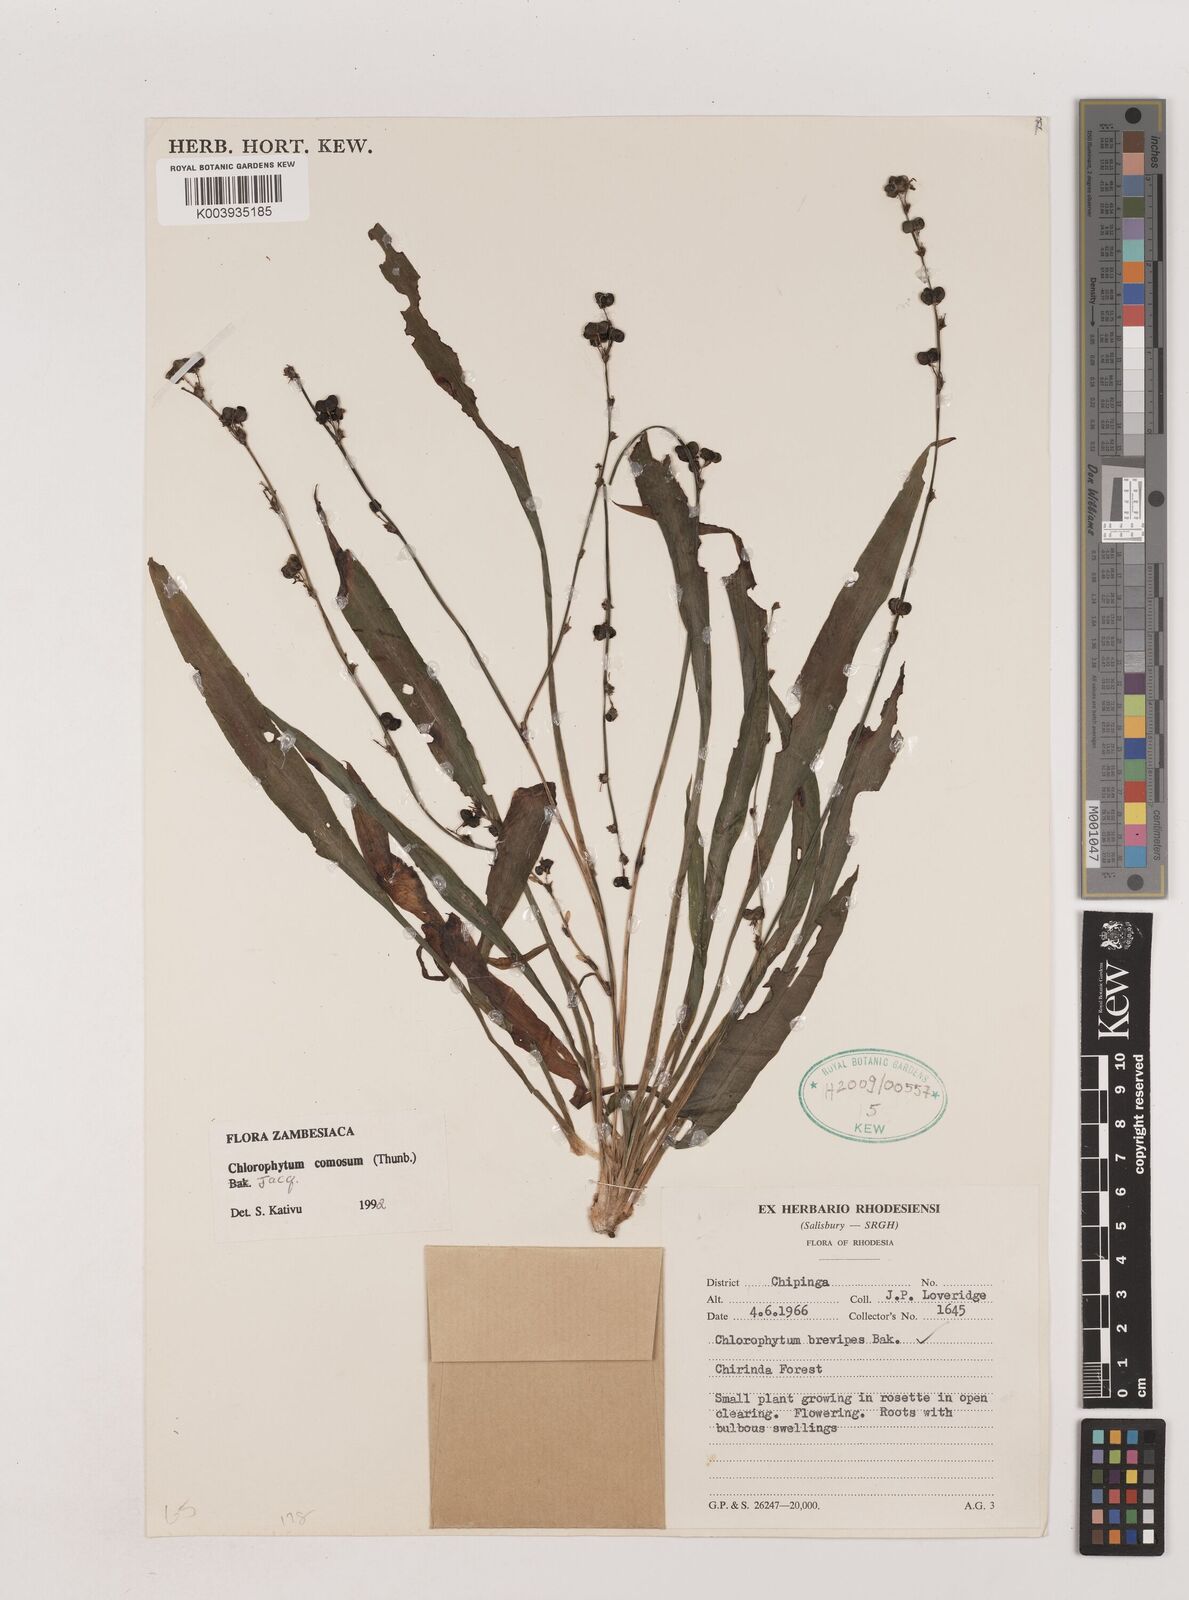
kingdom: Plantae
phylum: Tracheophyta
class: Liliopsida
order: Asparagales
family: Asparagaceae
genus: Chlorophytum
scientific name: Chlorophytum comosum
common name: Spider plant
